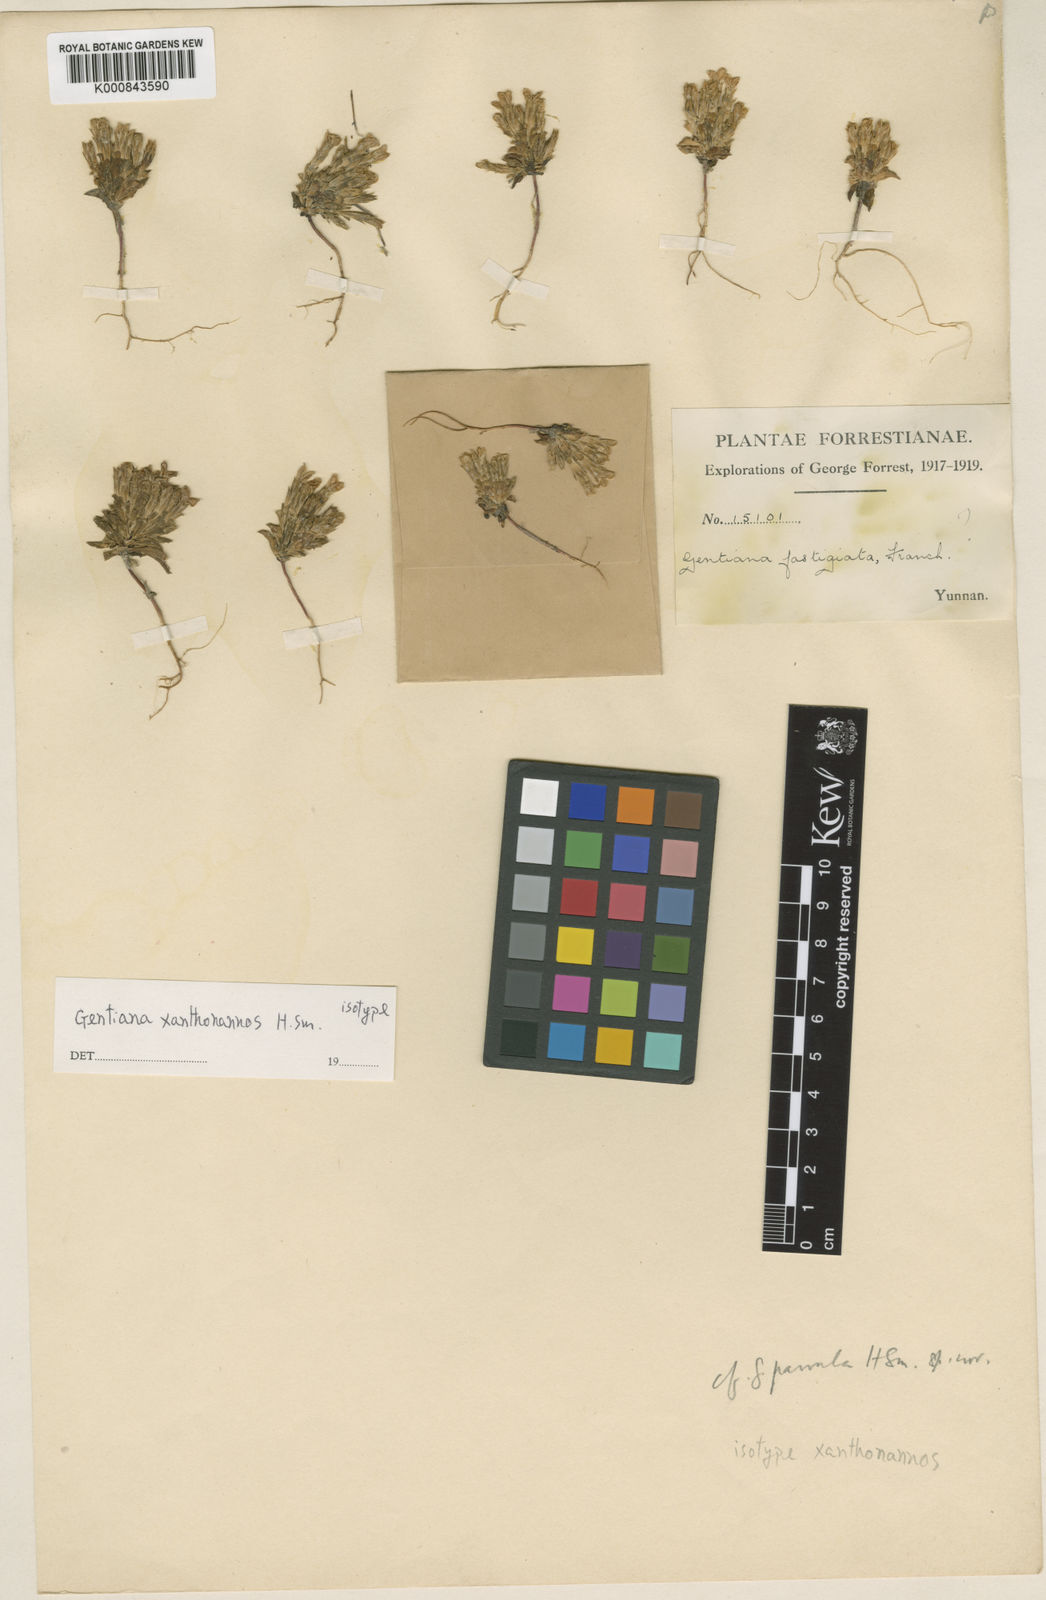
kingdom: Plantae
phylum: Tracheophyta
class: Magnoliopsida
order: Gentianales
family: Gentianaceae
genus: Gentiana
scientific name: Gentiana xanthonannos
